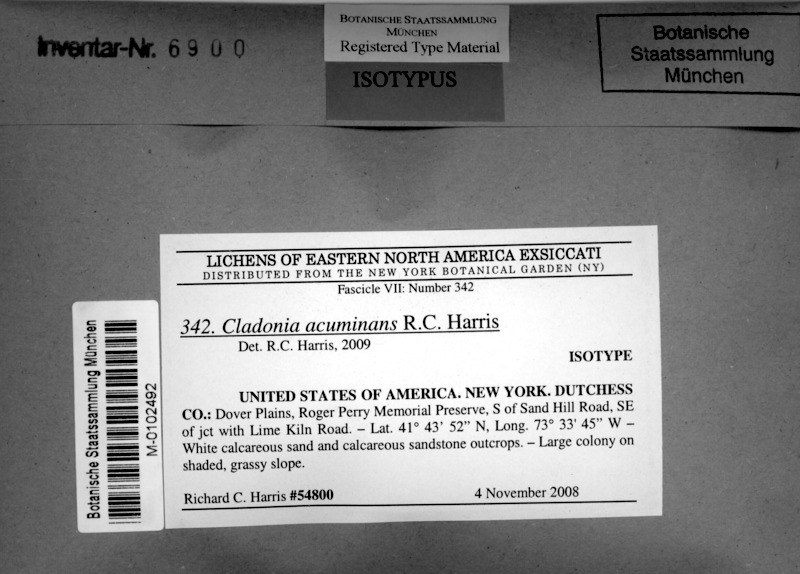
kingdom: Fungi
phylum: Ascomycota
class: Lecanoromycetes
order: Lecanorales
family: Cladoniaceae
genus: Cladonia
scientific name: Cladonia acuminata
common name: Acutetip cup lichen
